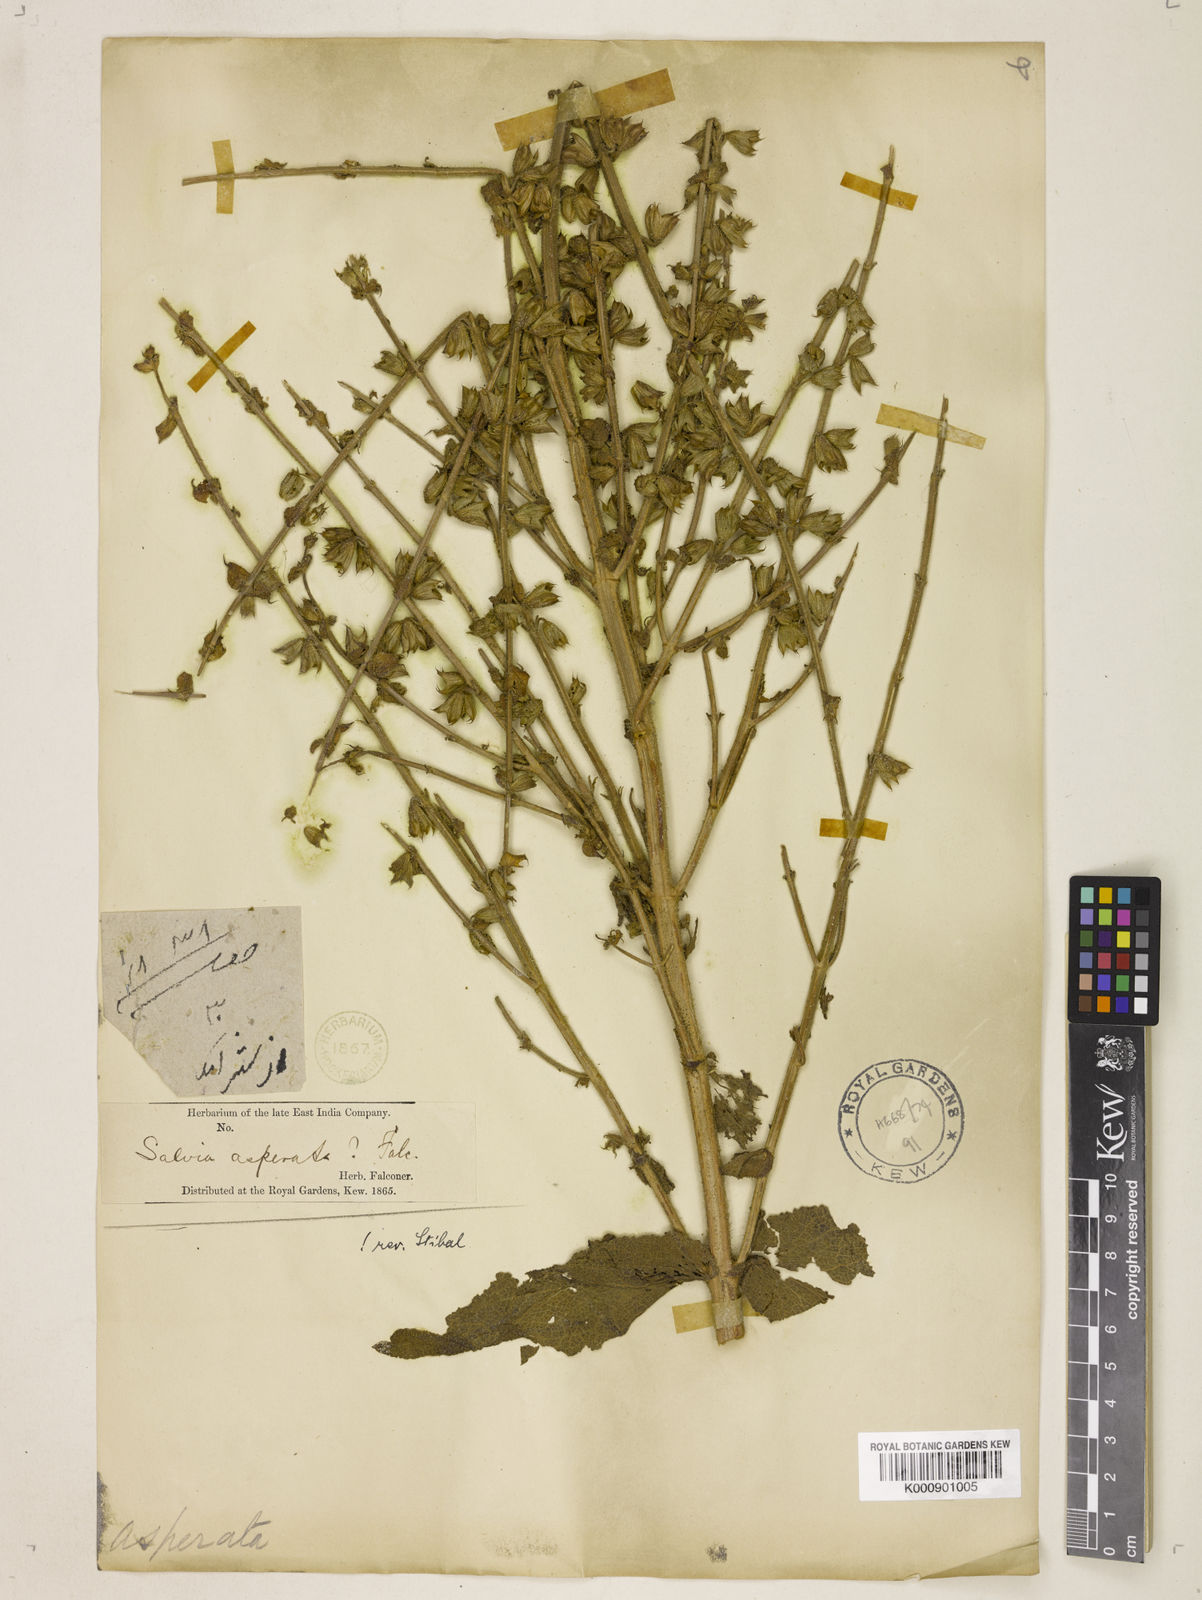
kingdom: Plantae
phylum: Tracheophyta
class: Magnoliopsida
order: Lamiales
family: Lamiaceae
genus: Salvia
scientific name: Salvia asperata
